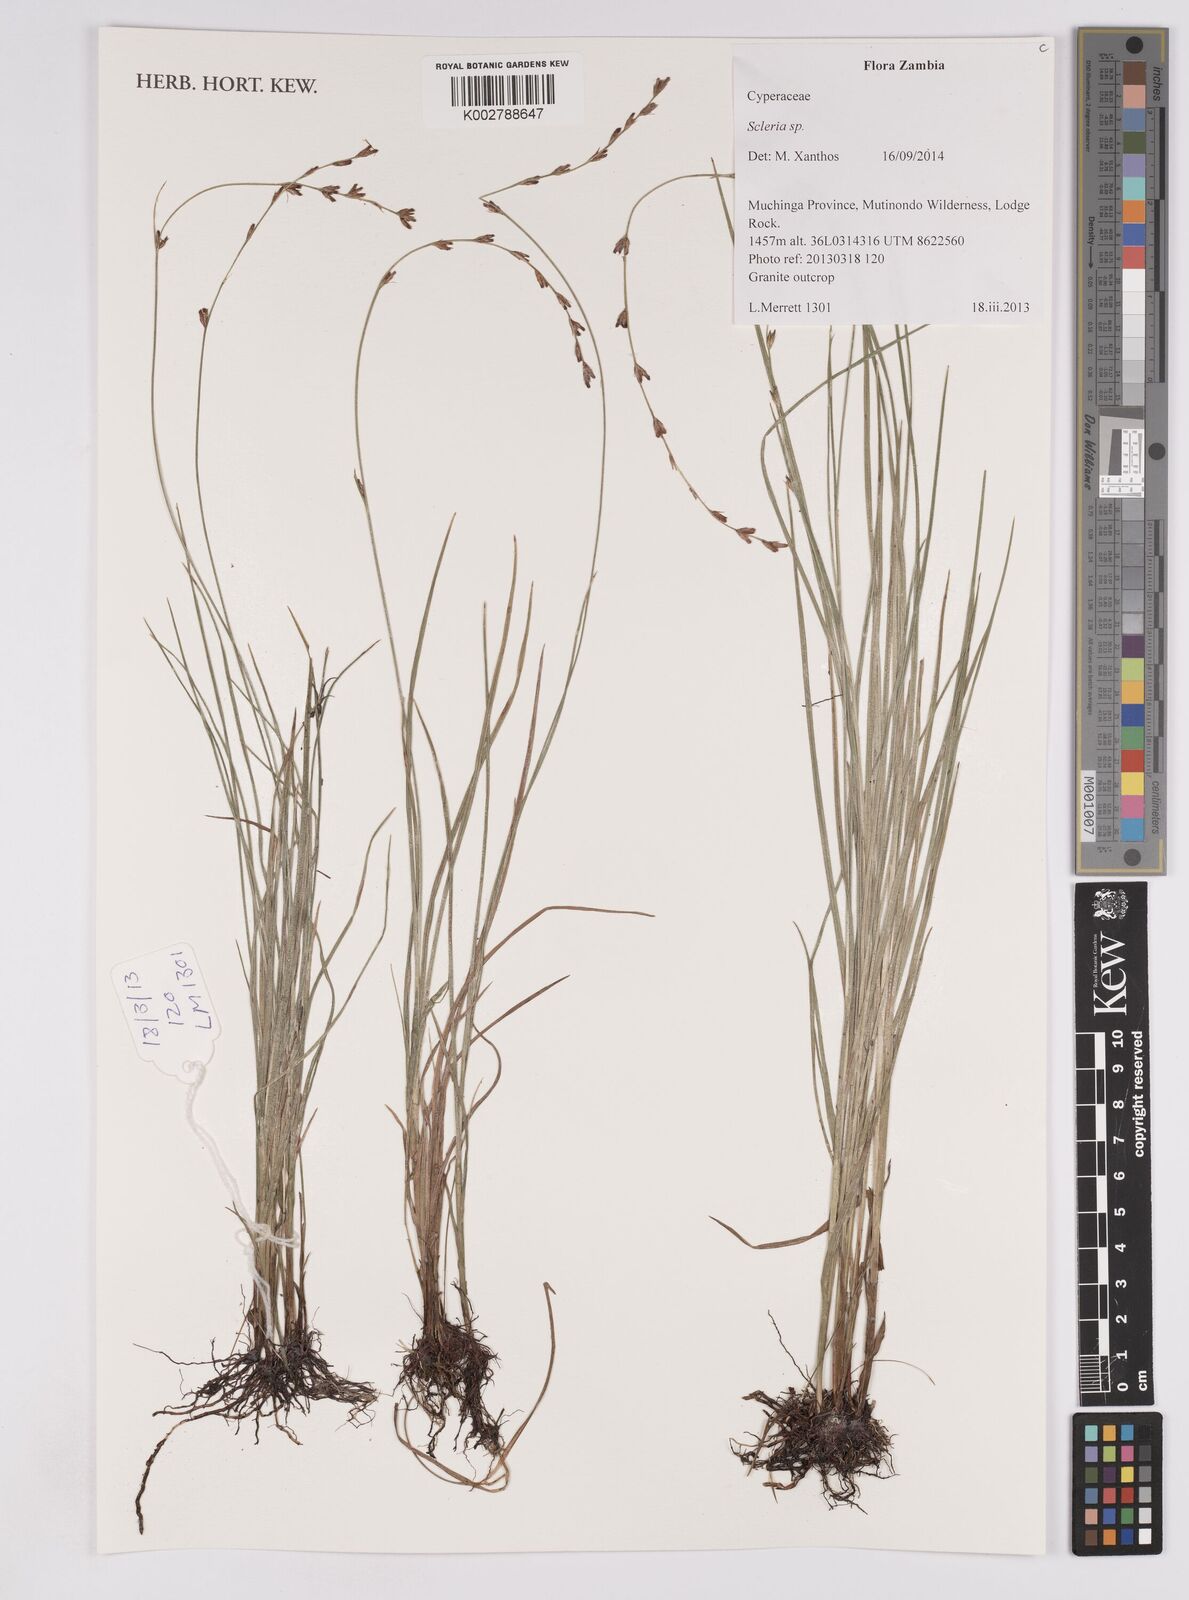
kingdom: Plantae
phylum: Tracheophyta
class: Liliopsida
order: Poales
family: Cyperaceae
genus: Scleria
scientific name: Scleria
